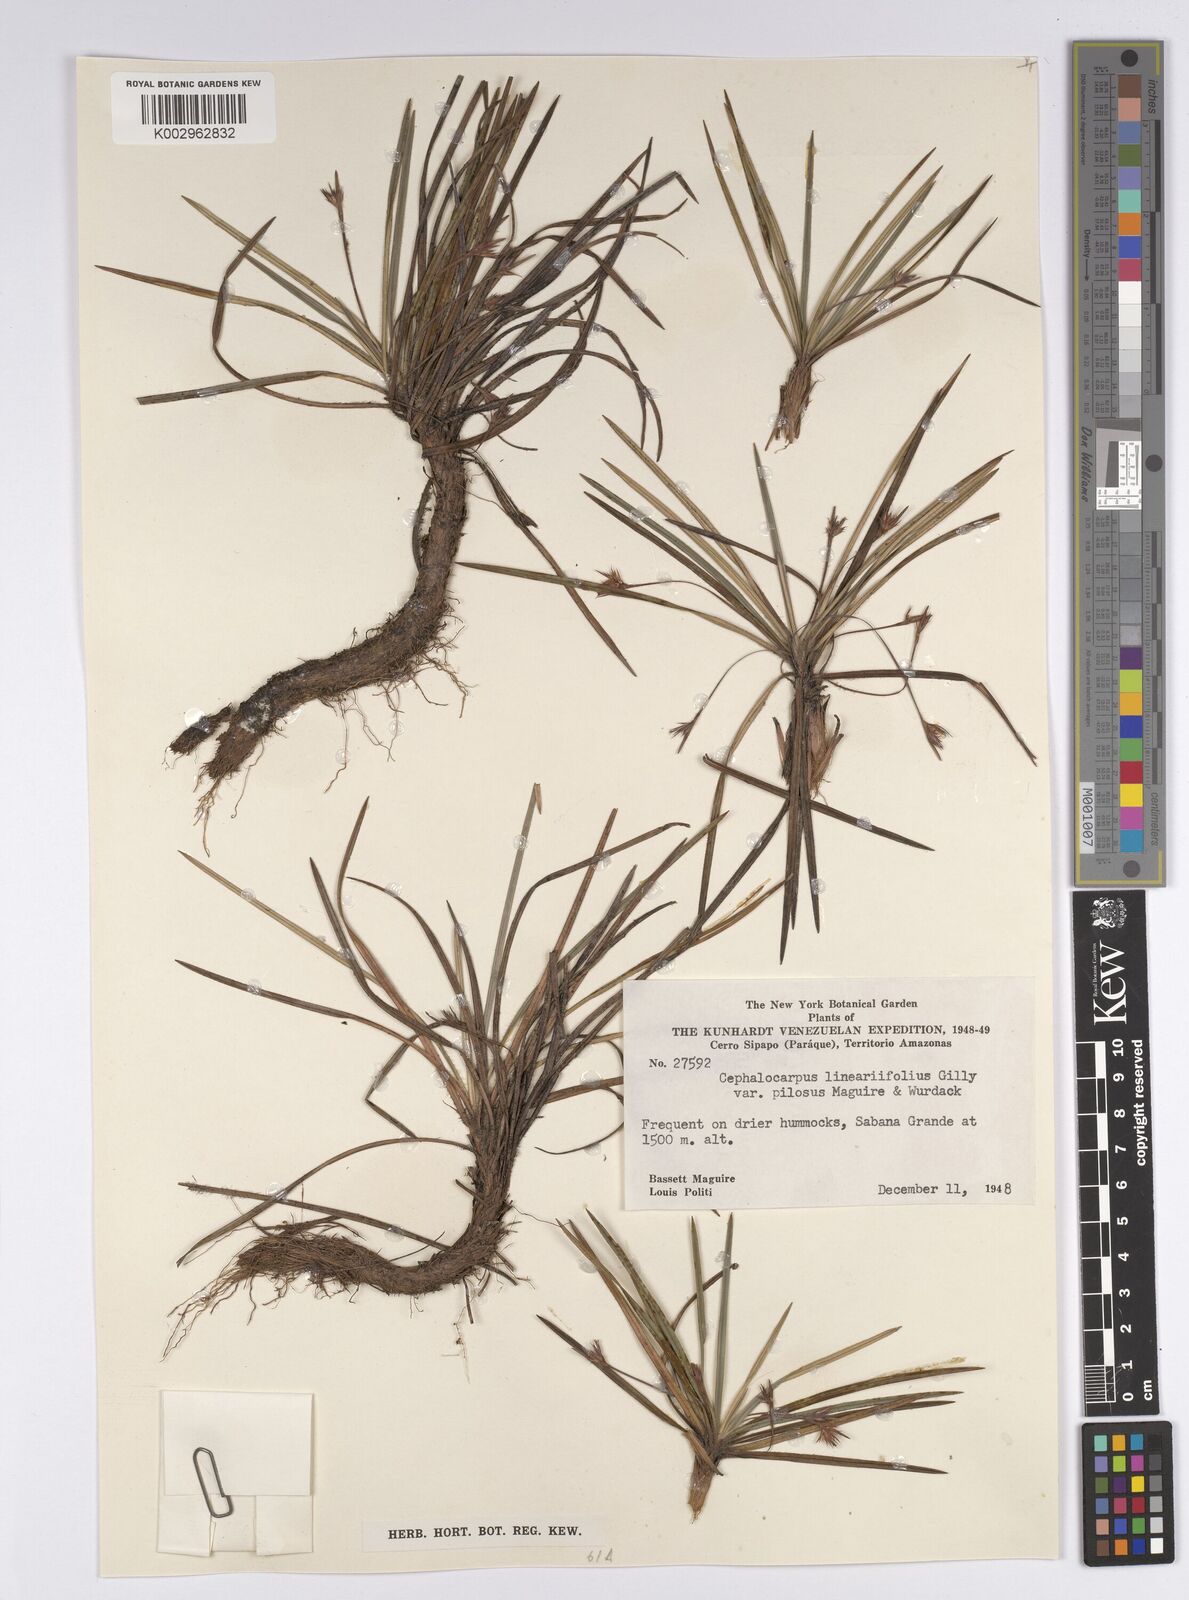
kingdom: Plantae
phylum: Tracheophyta
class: Liliopsida
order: Poales
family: Cyperaceae
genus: Cephalocarpus
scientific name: Cephalocarpus rigidus
